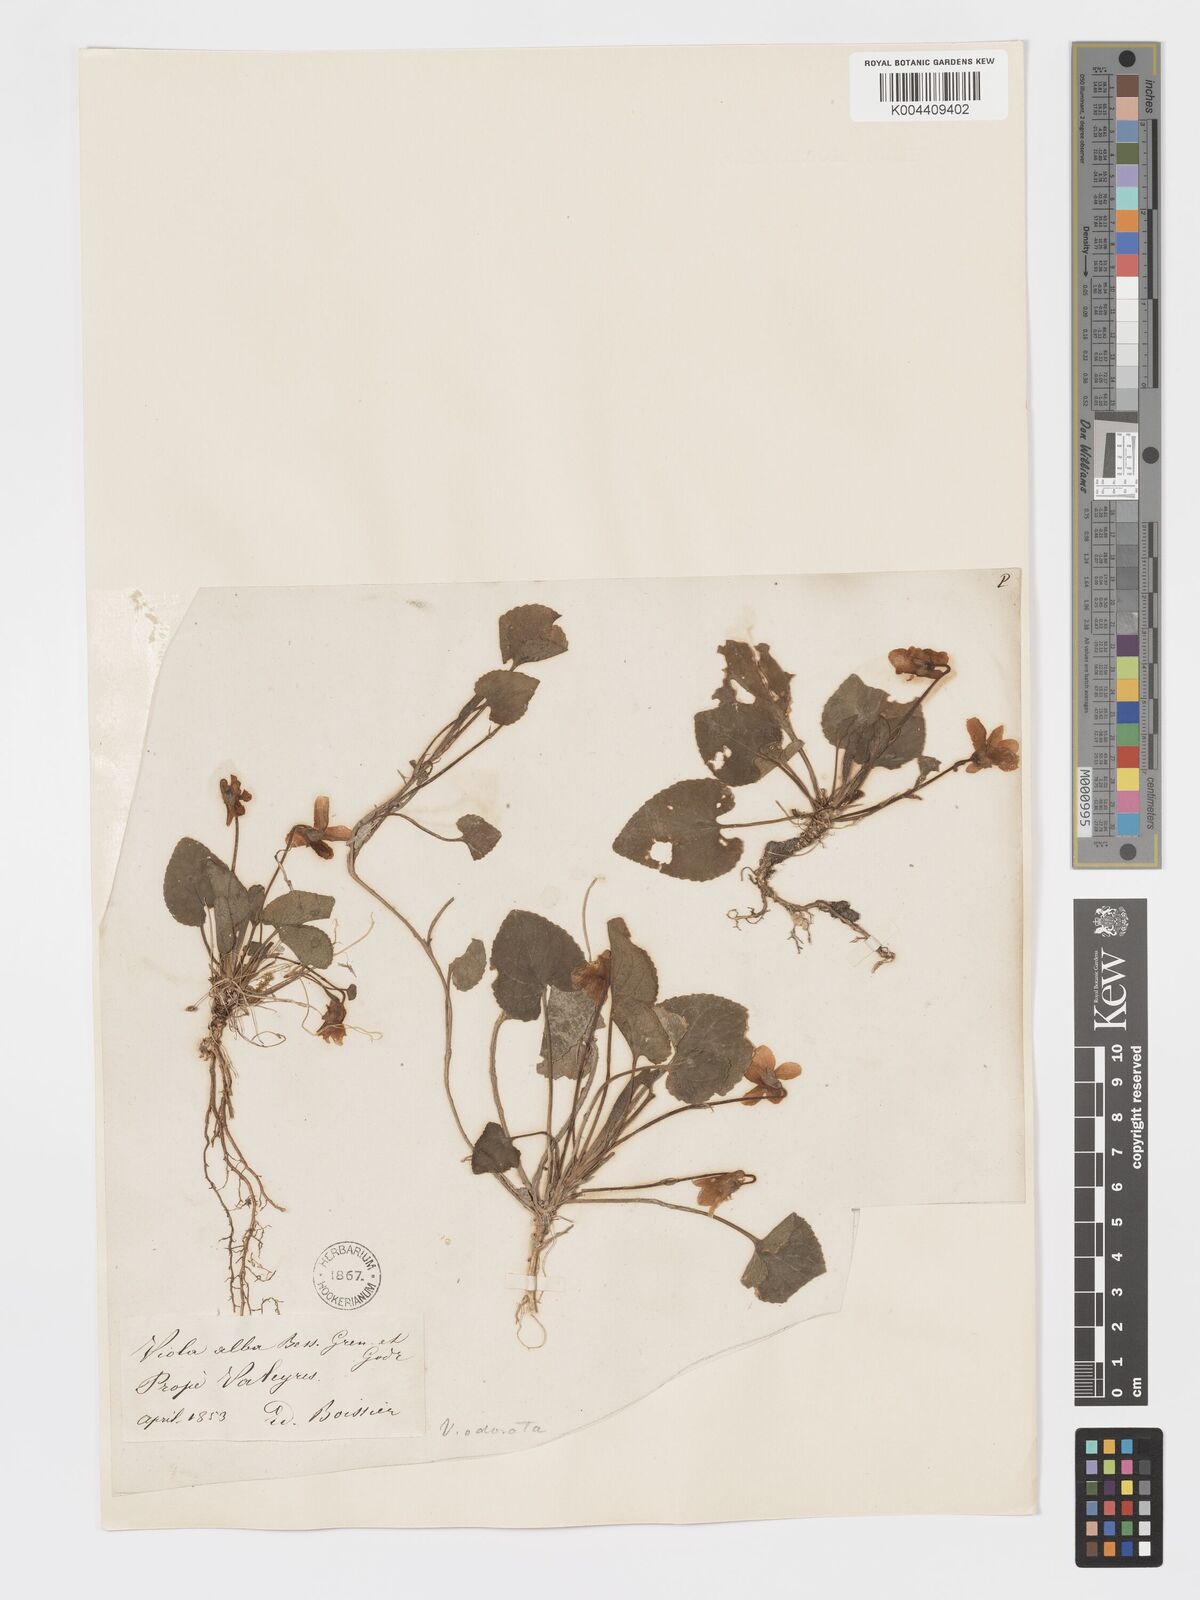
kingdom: Plantae
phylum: Tracheophyta
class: Magnoliopsida
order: Malpighiales
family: Violaceae
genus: Viola
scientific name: Viola alba
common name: White violet
